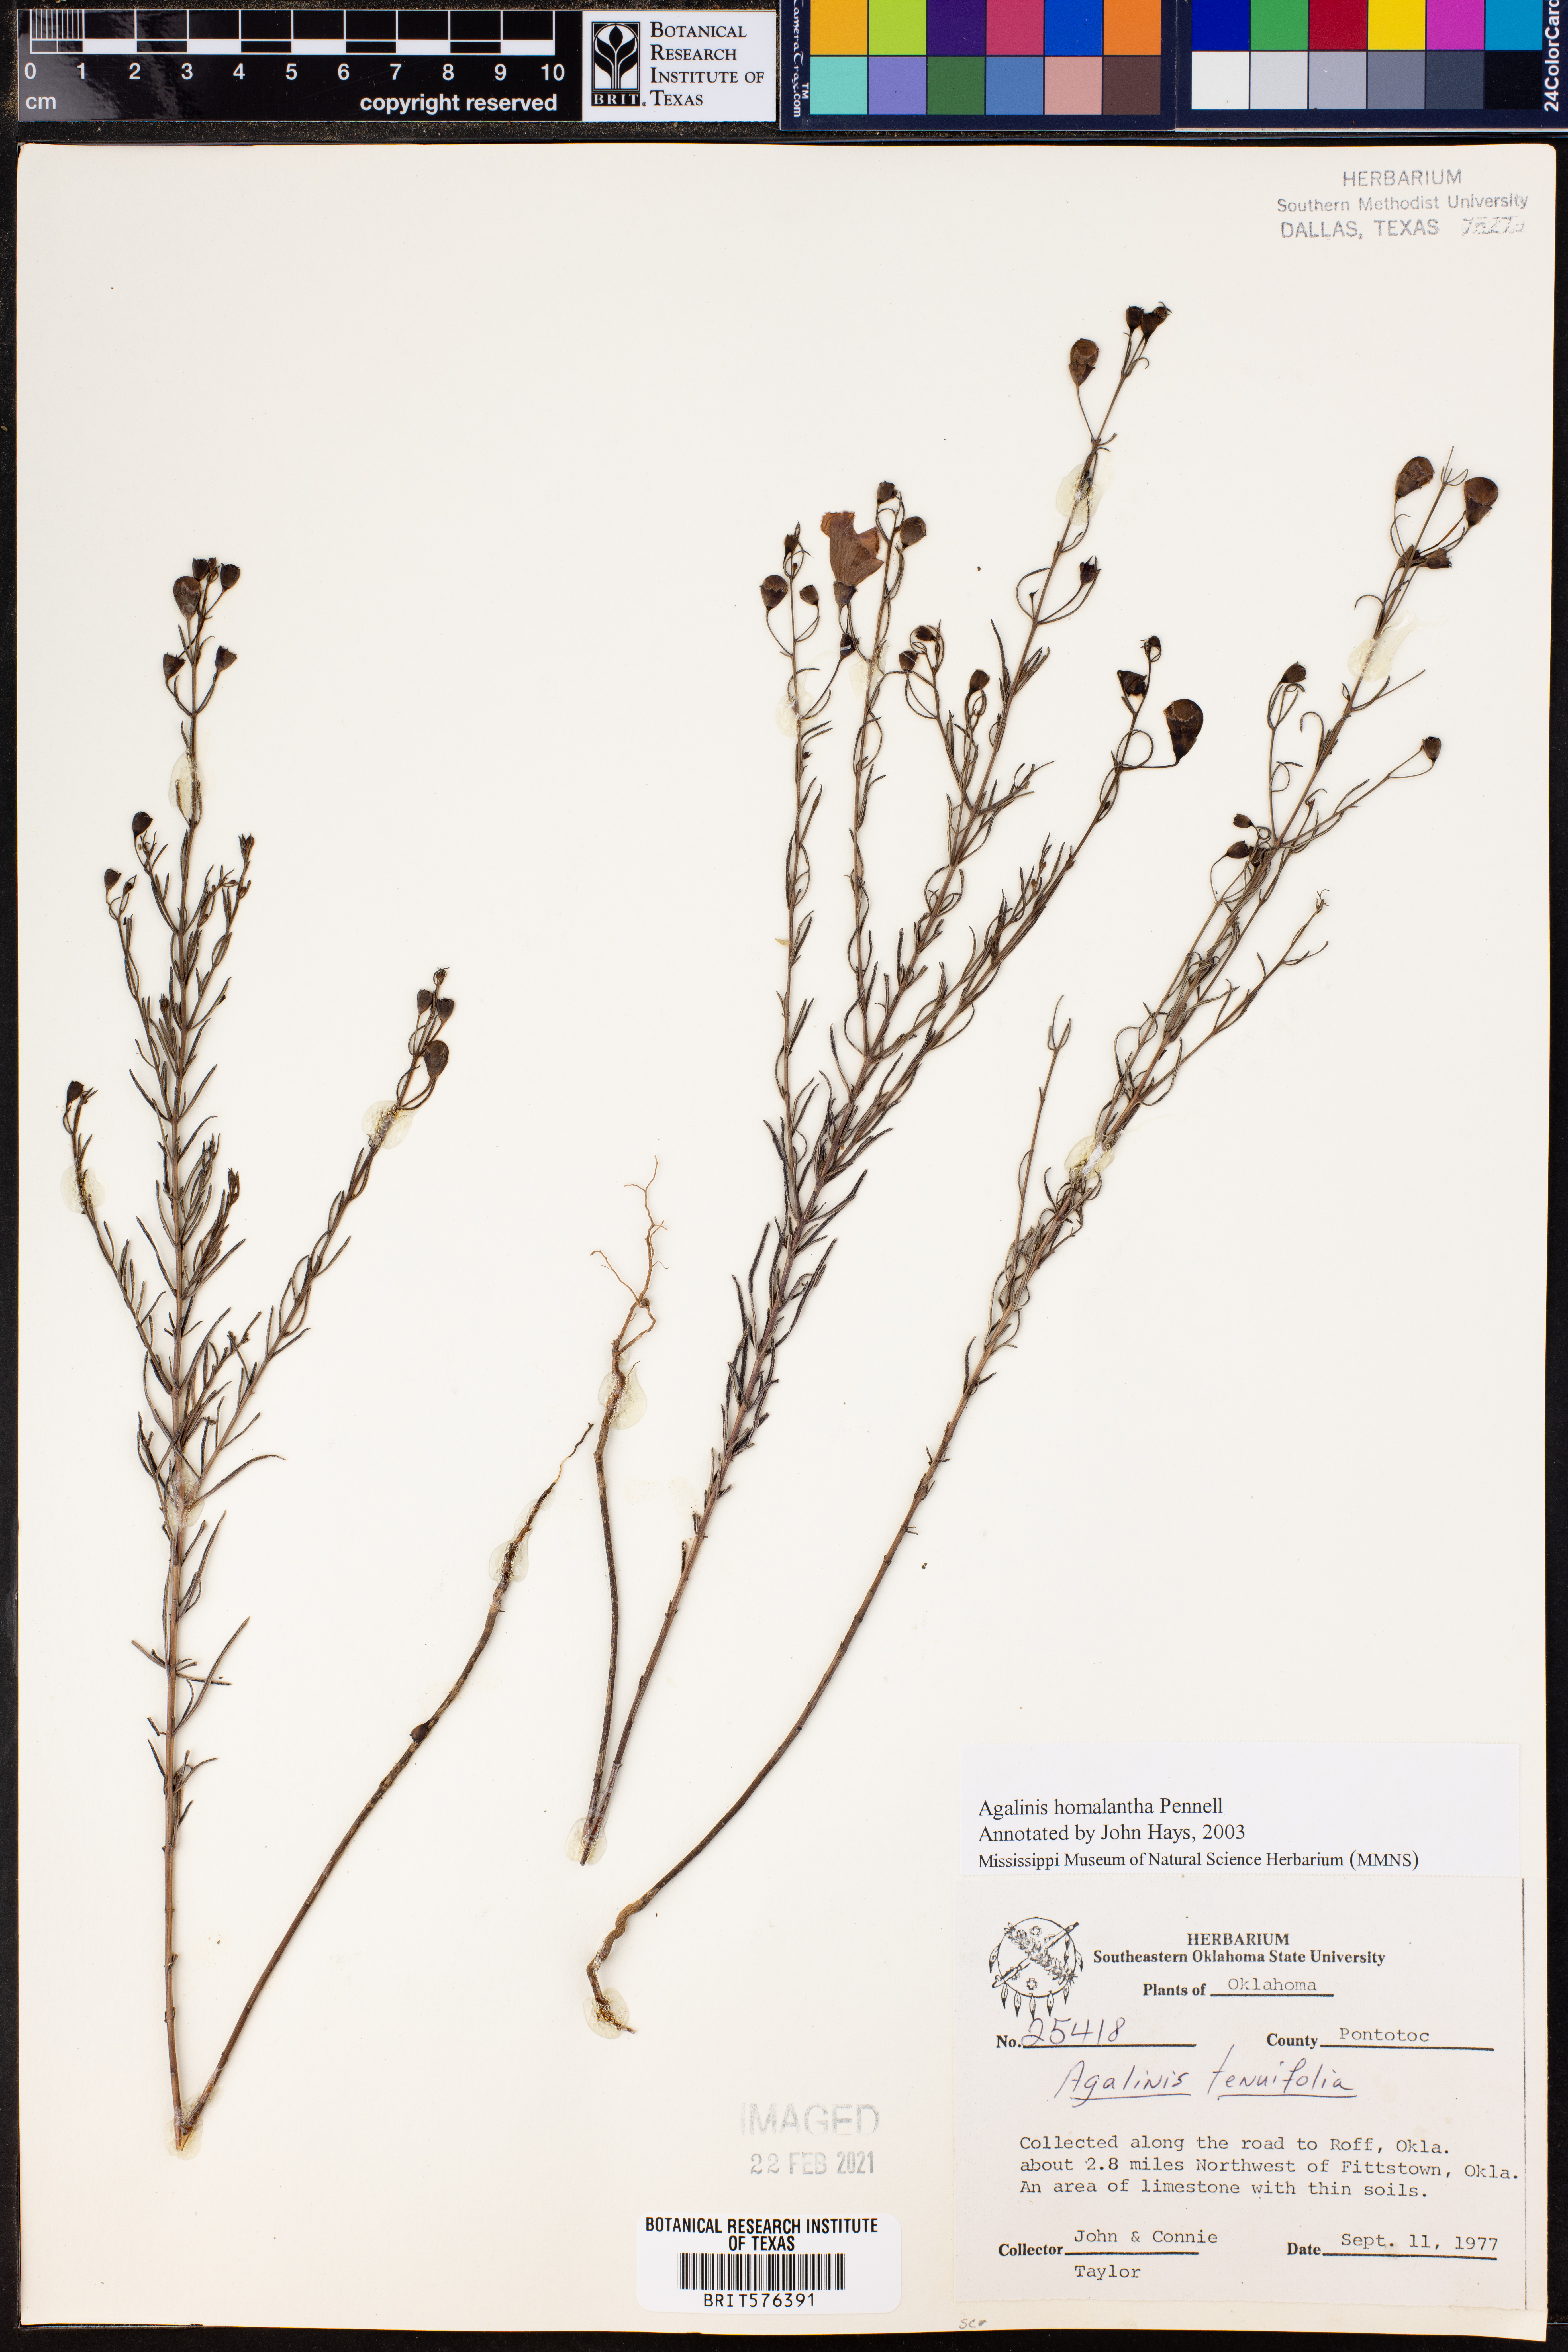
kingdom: Plantae
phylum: Tracheophyta
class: Magnoliopsida
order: Lamiales
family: Orobanchaceae
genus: Agalinis
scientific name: Agalinis homalantha
